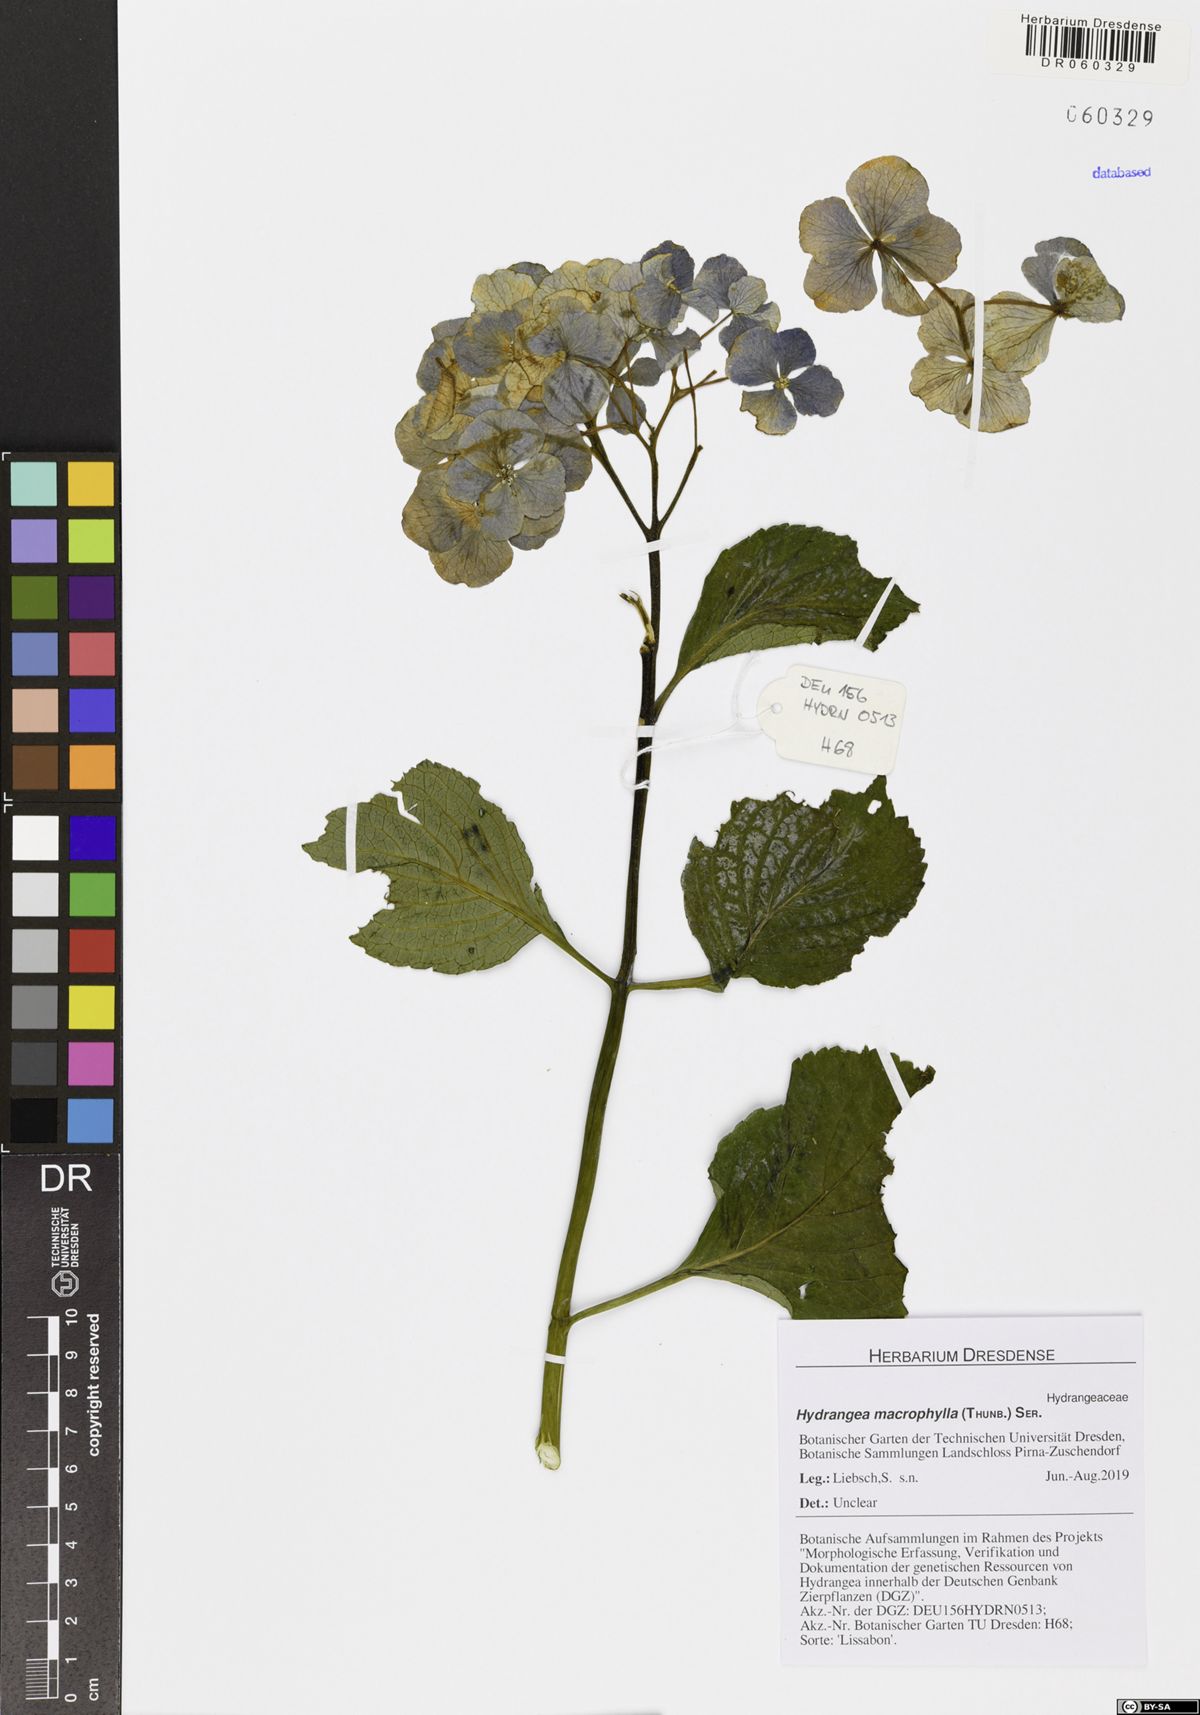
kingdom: Plantae
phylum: Tracheophyta
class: Magnoliopsida
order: Cornales
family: Hydrangeaceae
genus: Hydrangea
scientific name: Hydrangea macrophylla
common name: Hydrangea
